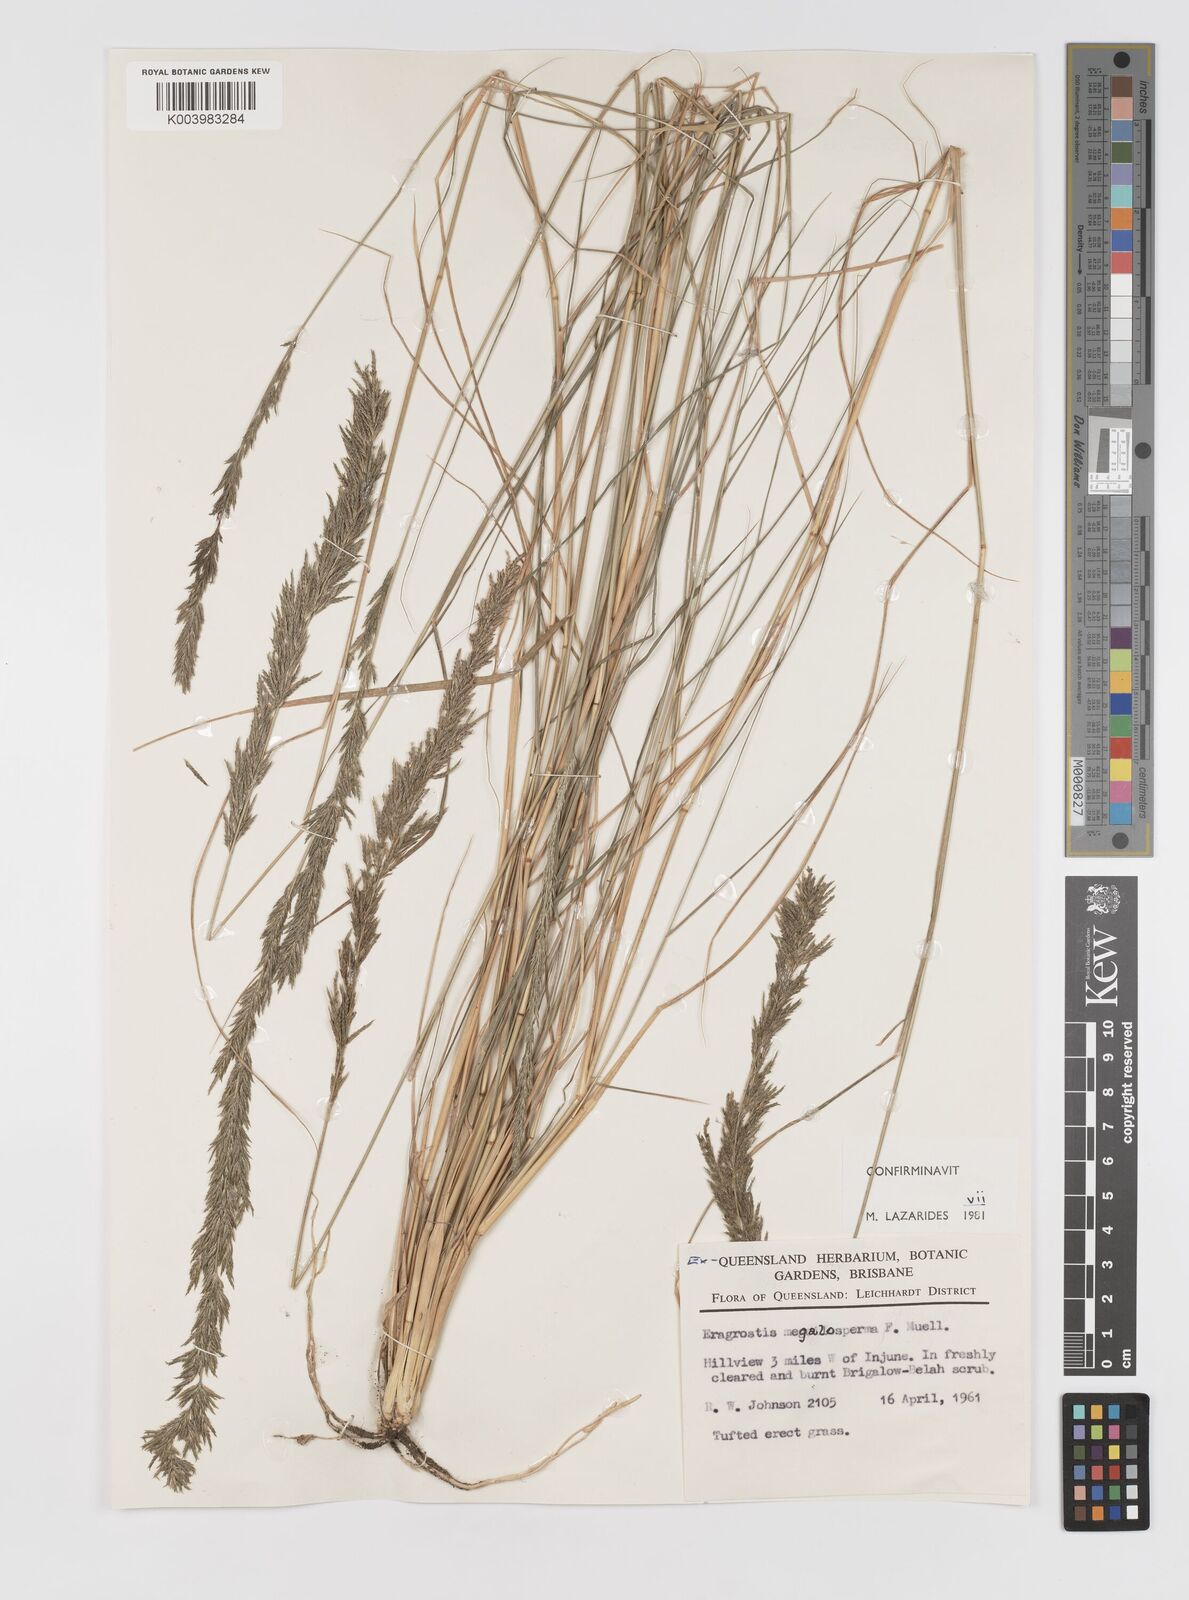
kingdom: Plantae
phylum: Tracheophyta
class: Liliopsida
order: Poales
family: Poaceae
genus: Sporobolus
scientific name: Sporobolus megalospermus
